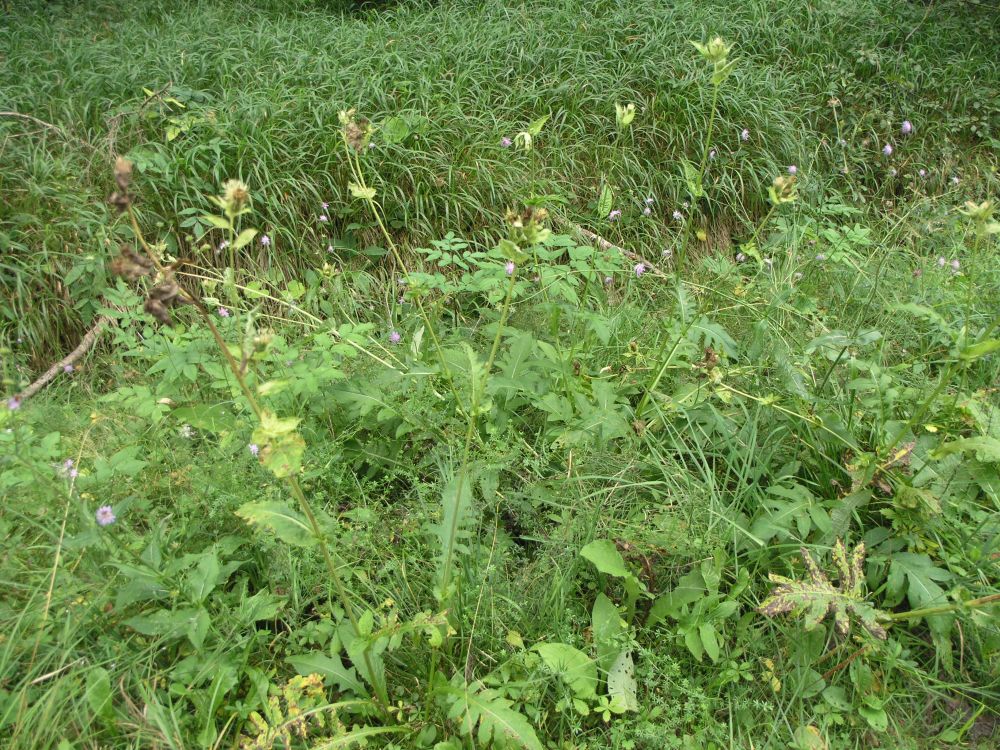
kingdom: Plantae
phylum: Tracheophyta
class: Magnoliopsida
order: Dipsacales
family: Caprifoliaceae
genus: Knautia
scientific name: Knautia dipsacifolia
